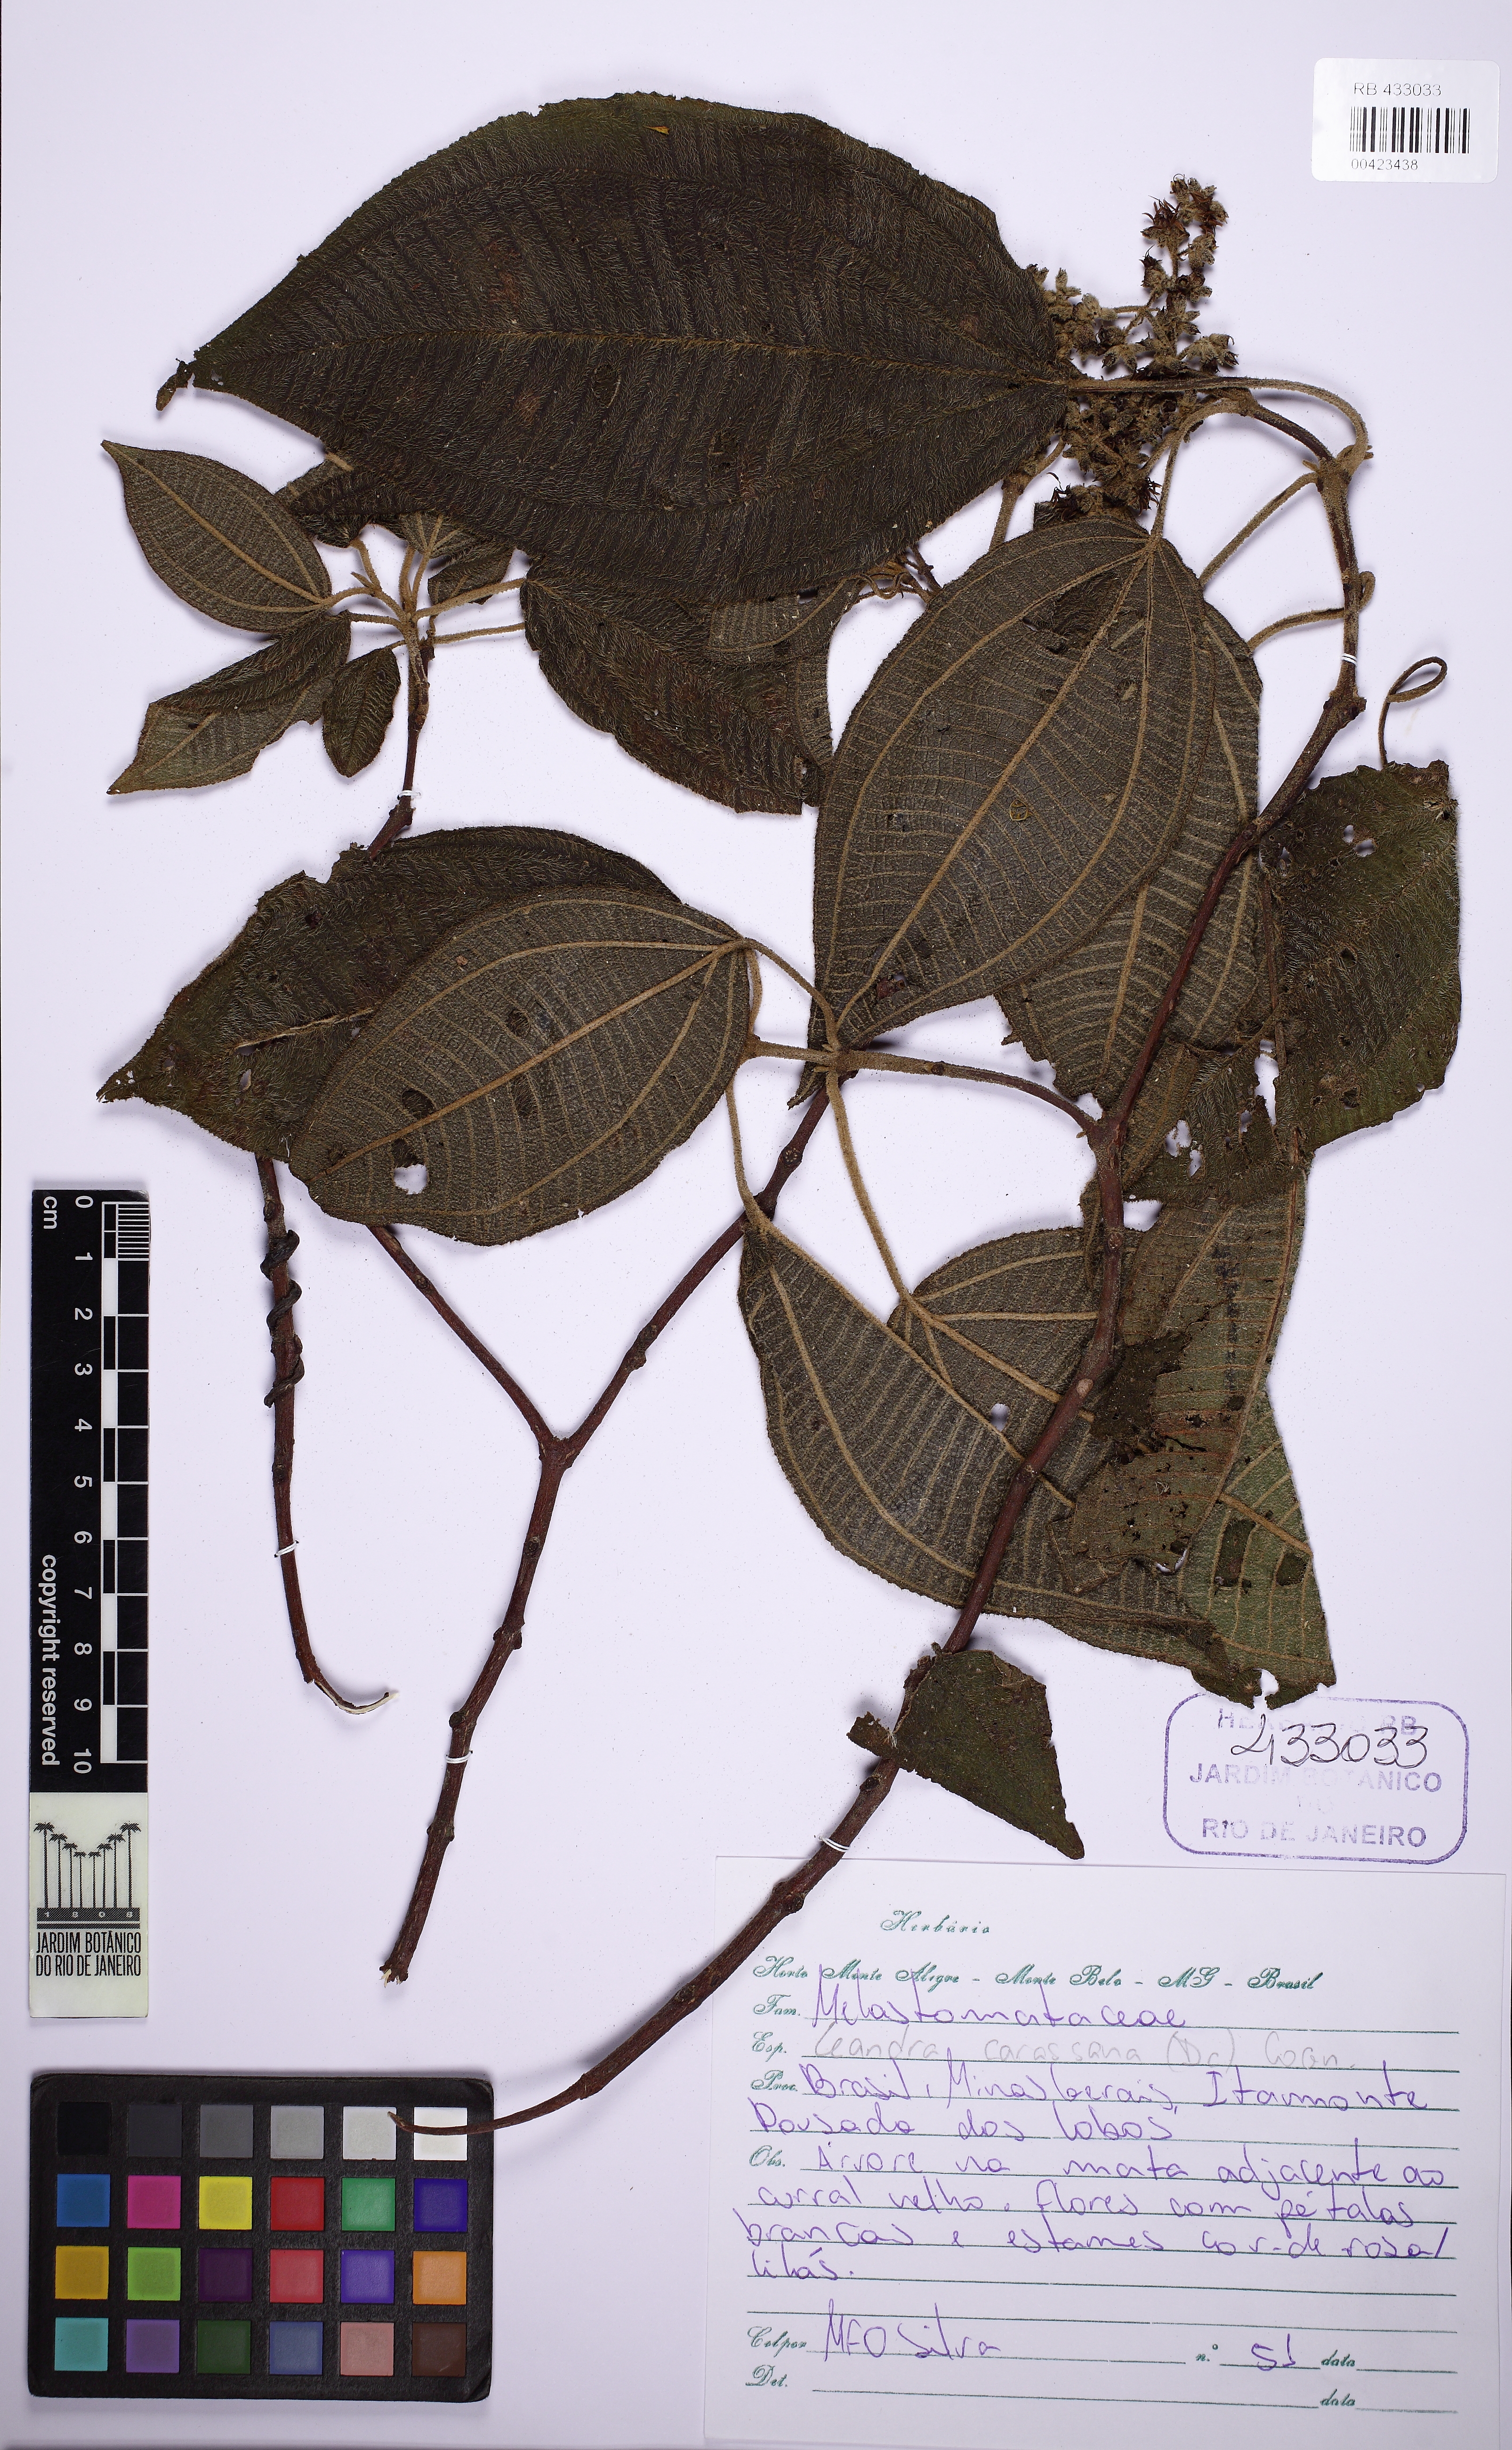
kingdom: Plantae
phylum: Tracheophyta
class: Magnoliopsida
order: Myrtales
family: Melastomataceae
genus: Miconia
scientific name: Miconia sublanata
